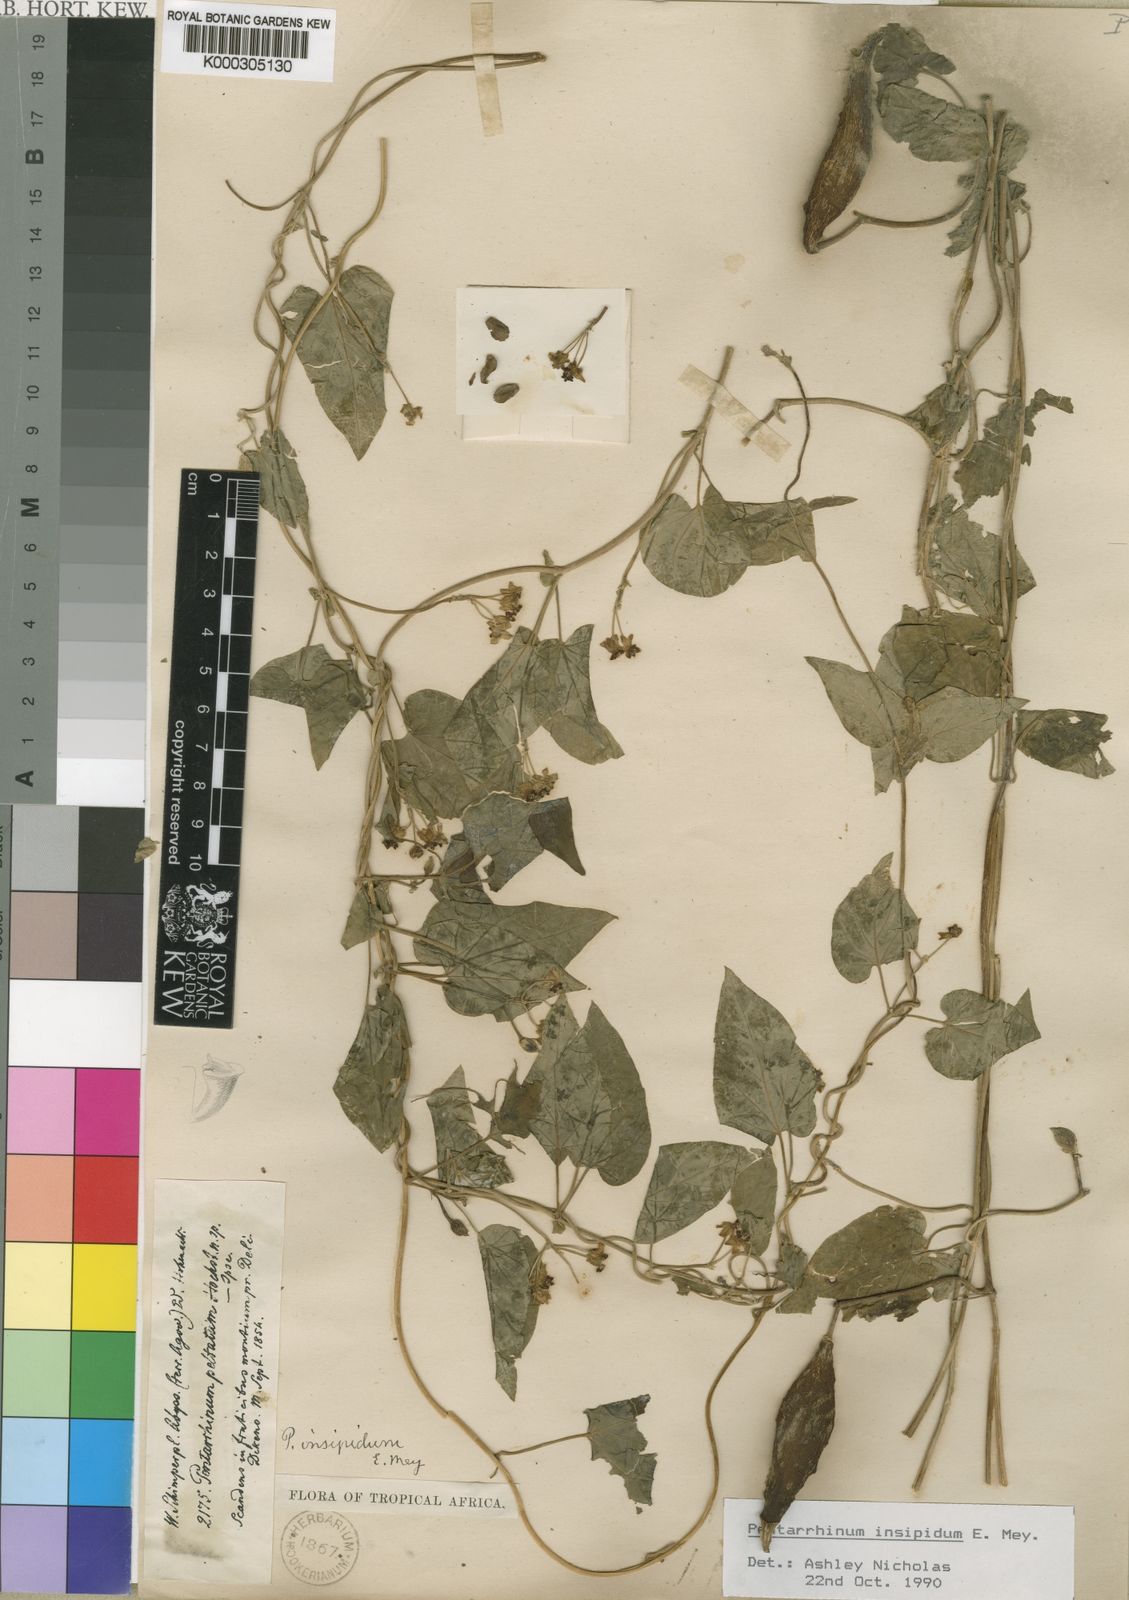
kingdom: Plantae
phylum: Tracheophyta
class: Magnoliopsida
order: Gentianales
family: Apocynaceae
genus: Cynanchum
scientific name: Cynanchum insipidum
